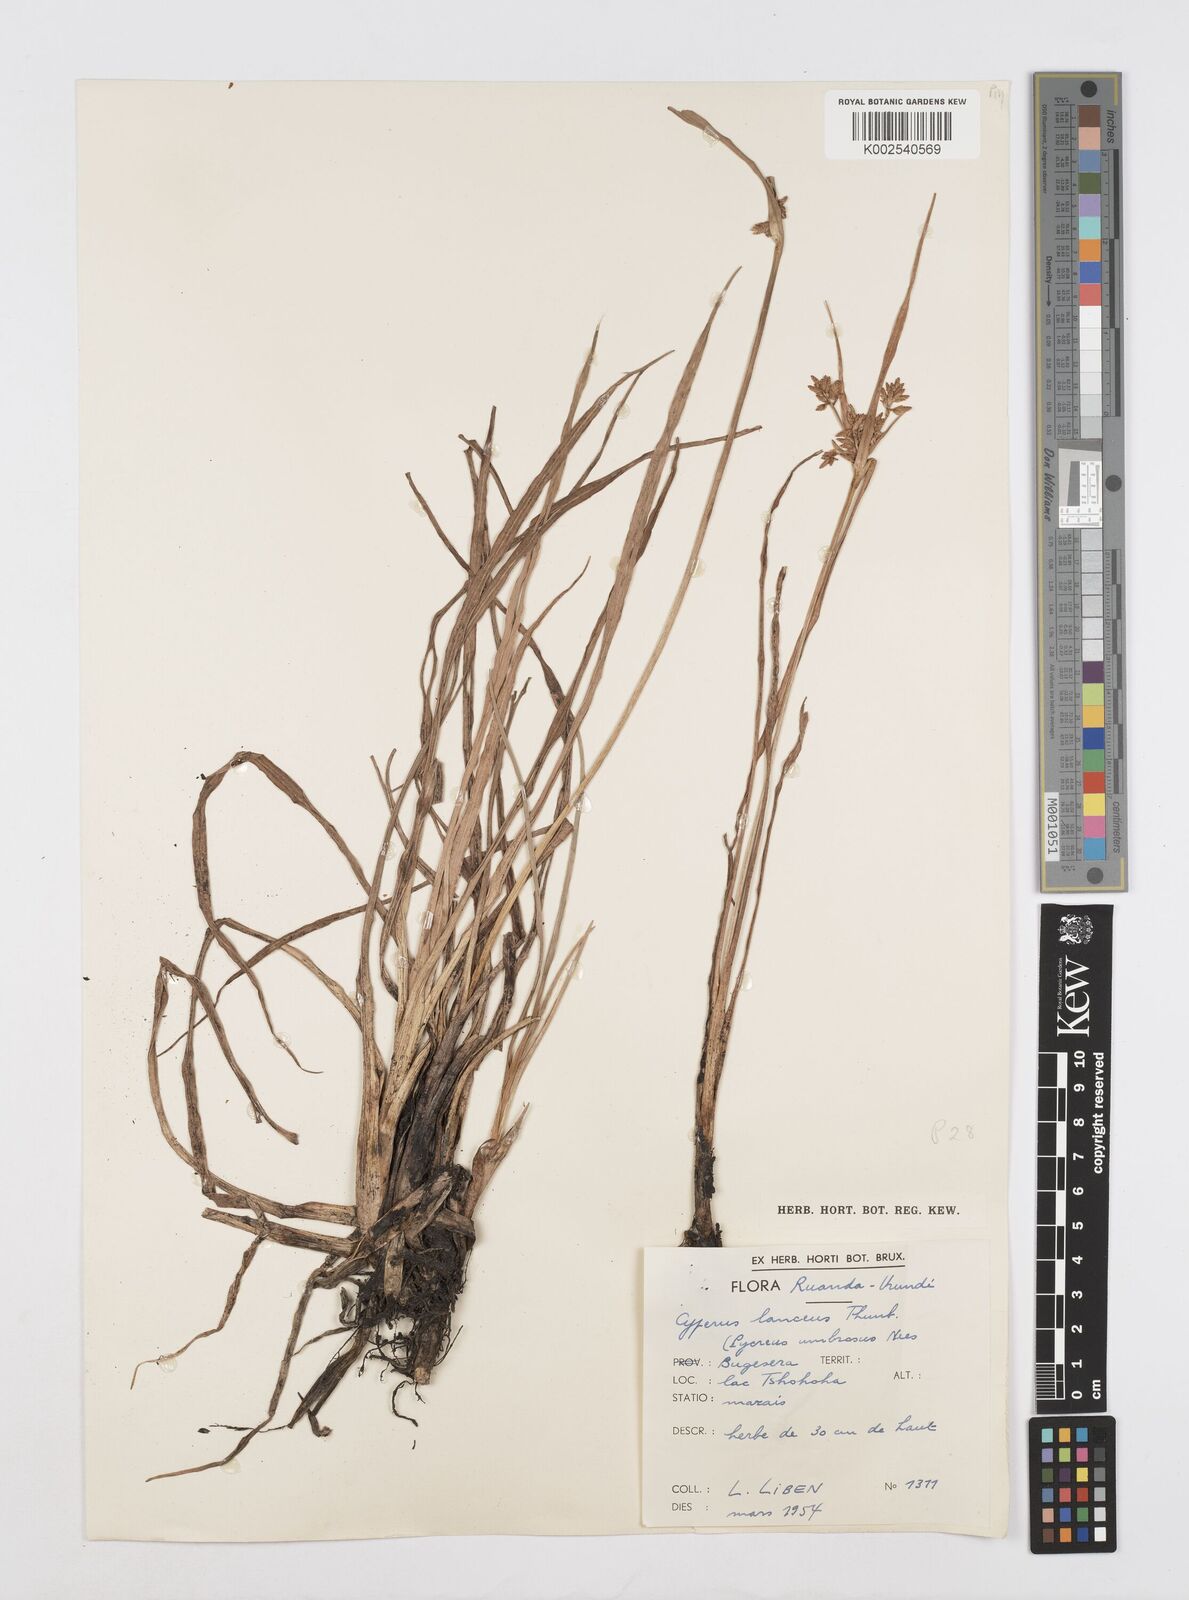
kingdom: Plantae
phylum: Tracheophyta
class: Liliopsida
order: Poales
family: Cyperaceae
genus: Cyperus
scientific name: Cyperus nitidus
